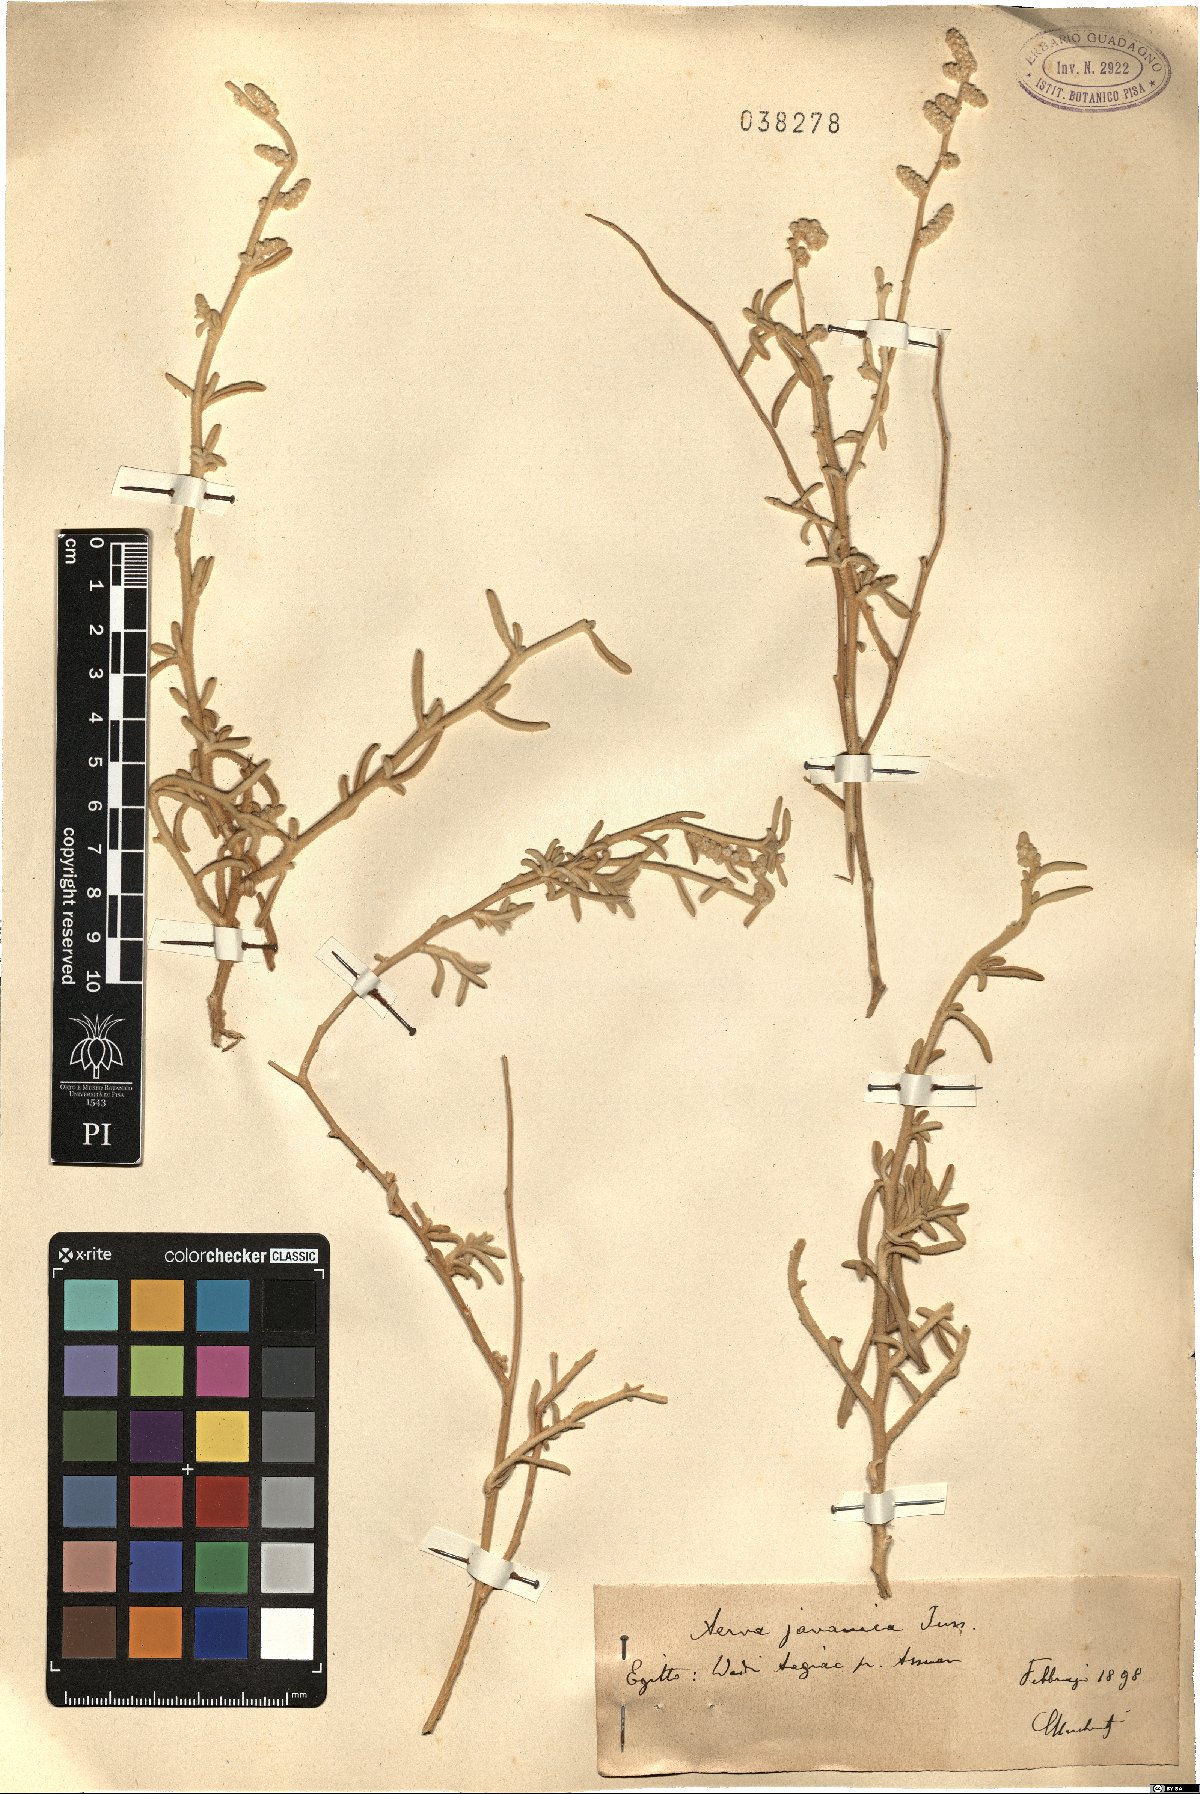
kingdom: Plantae
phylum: Tracheophyta
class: Magnoliopsida
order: Caryophyllales
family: Amaranthaceae
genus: Aerva
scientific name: Aerva javanica
